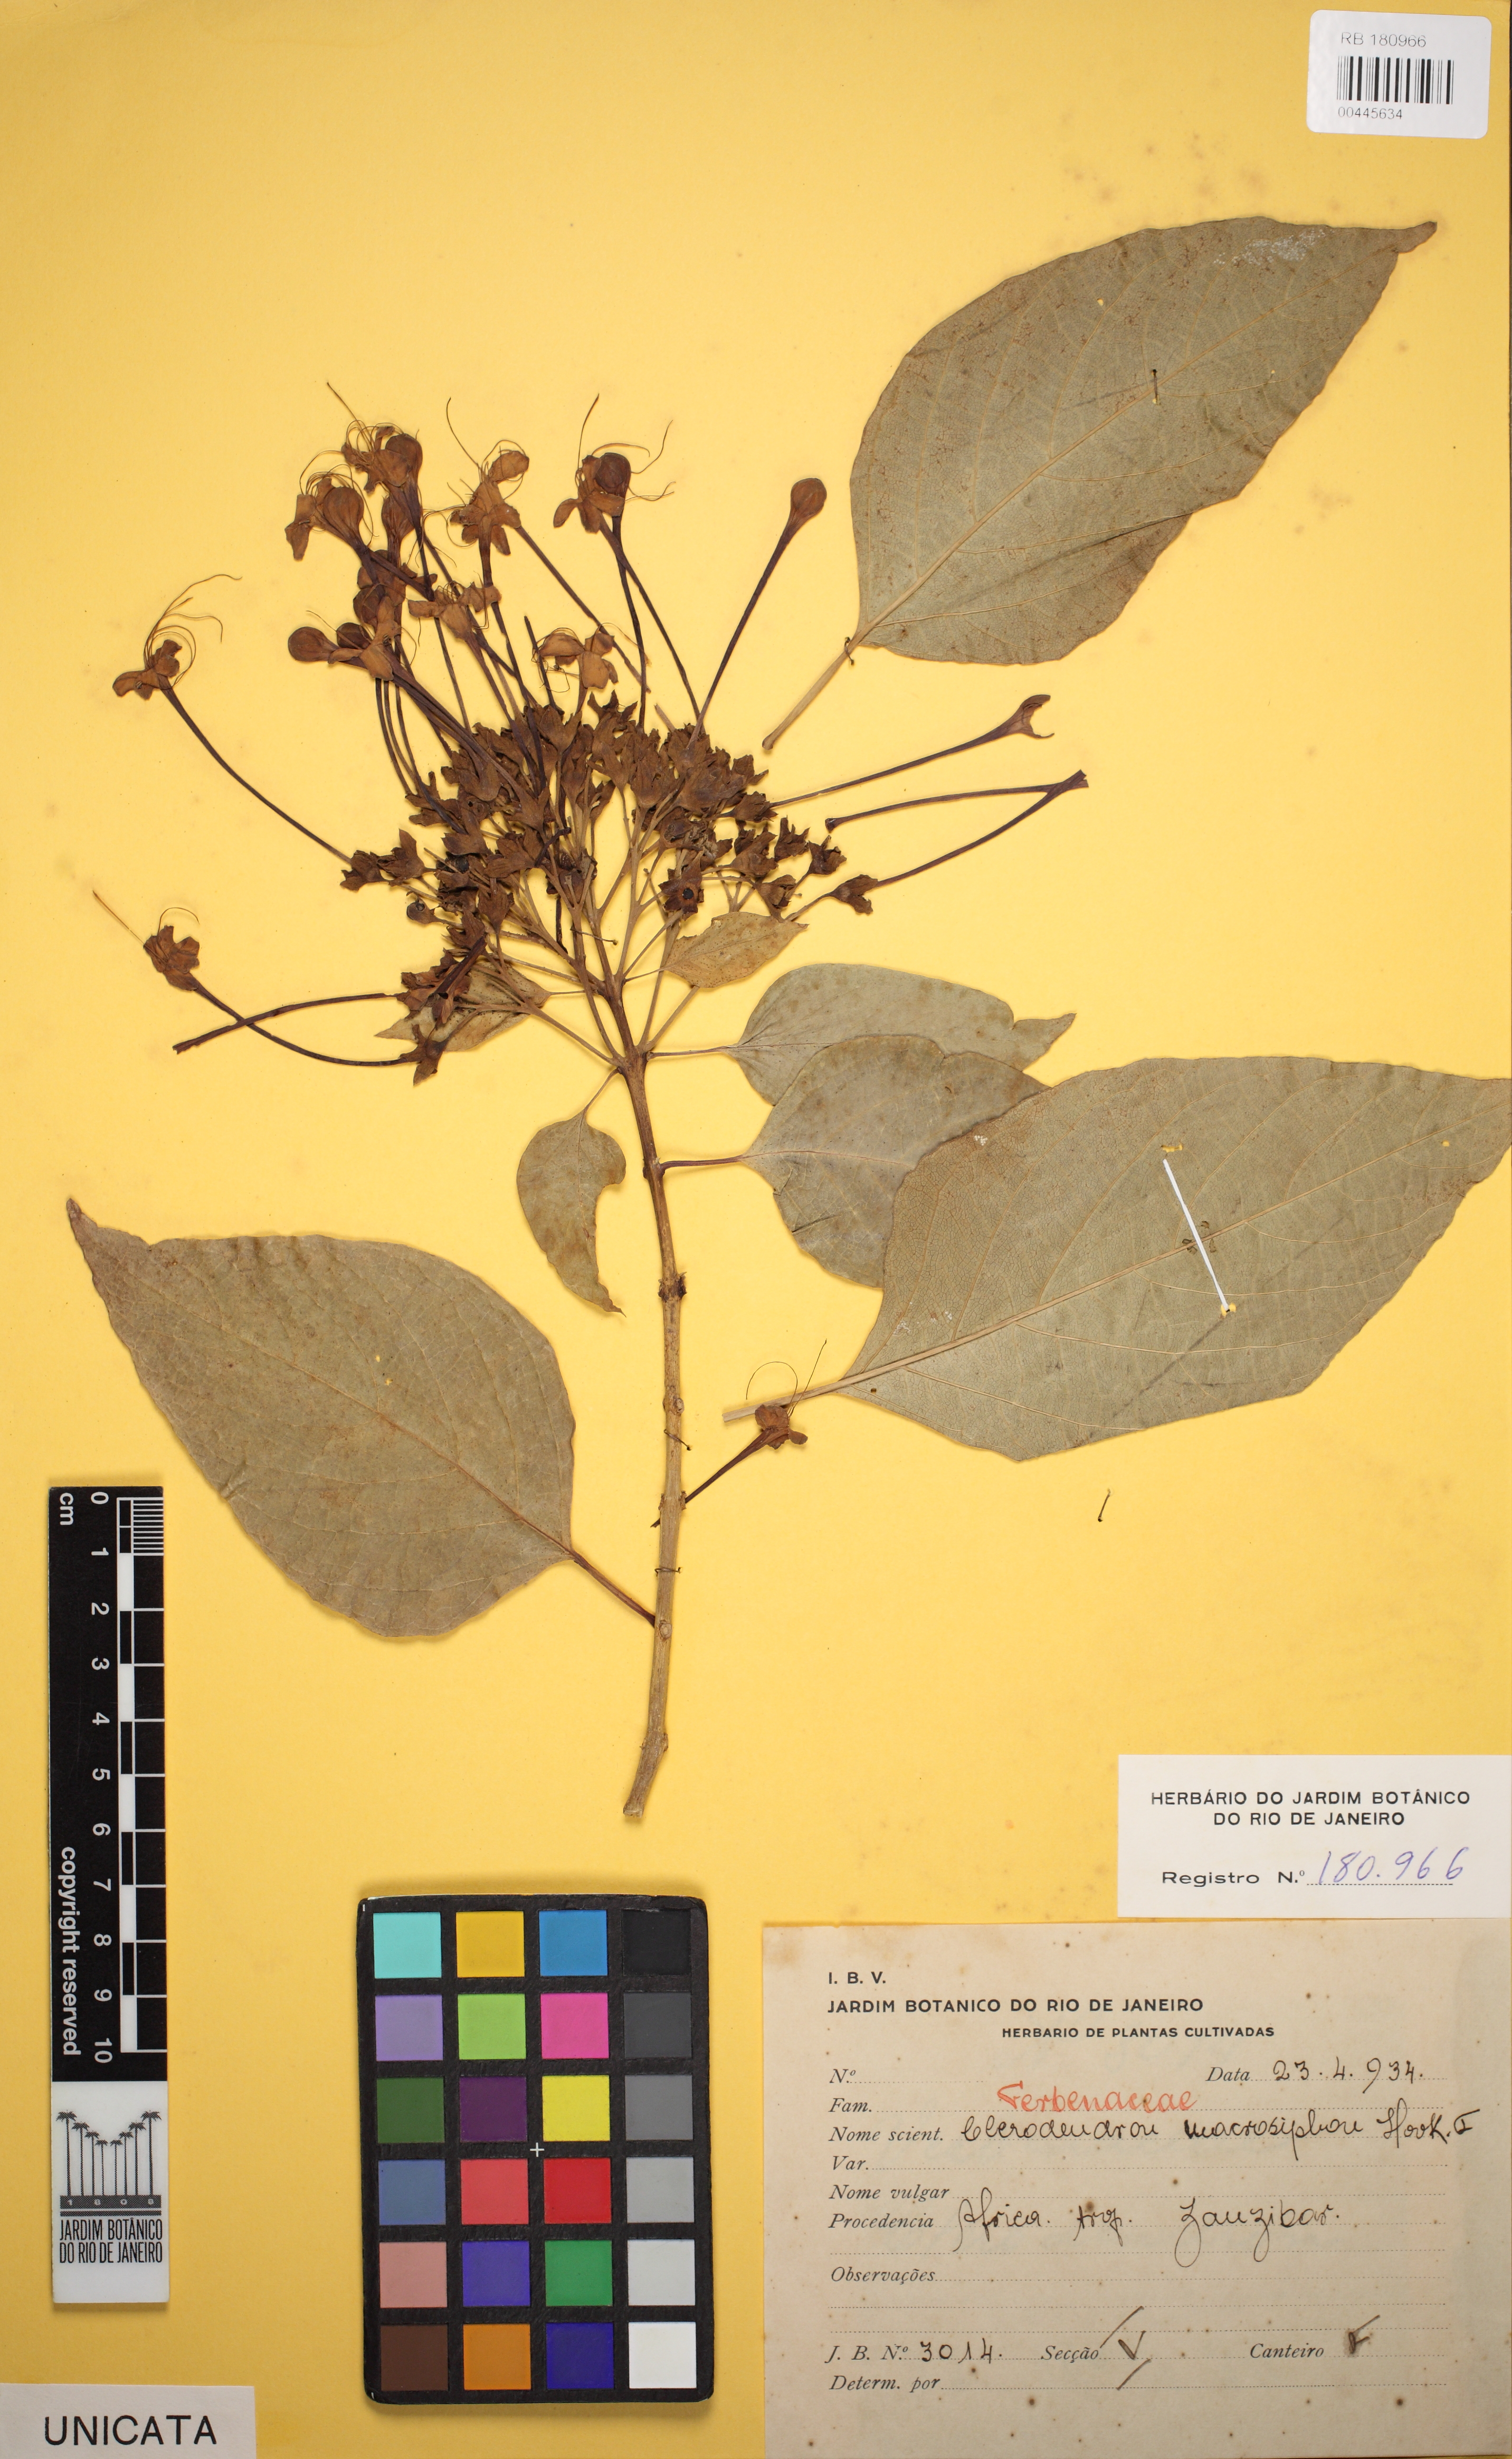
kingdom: Plantae
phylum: Tracheophyta
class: Magnoliopsida
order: Lamiales
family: Verbenaceae
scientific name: Verbenaceae
